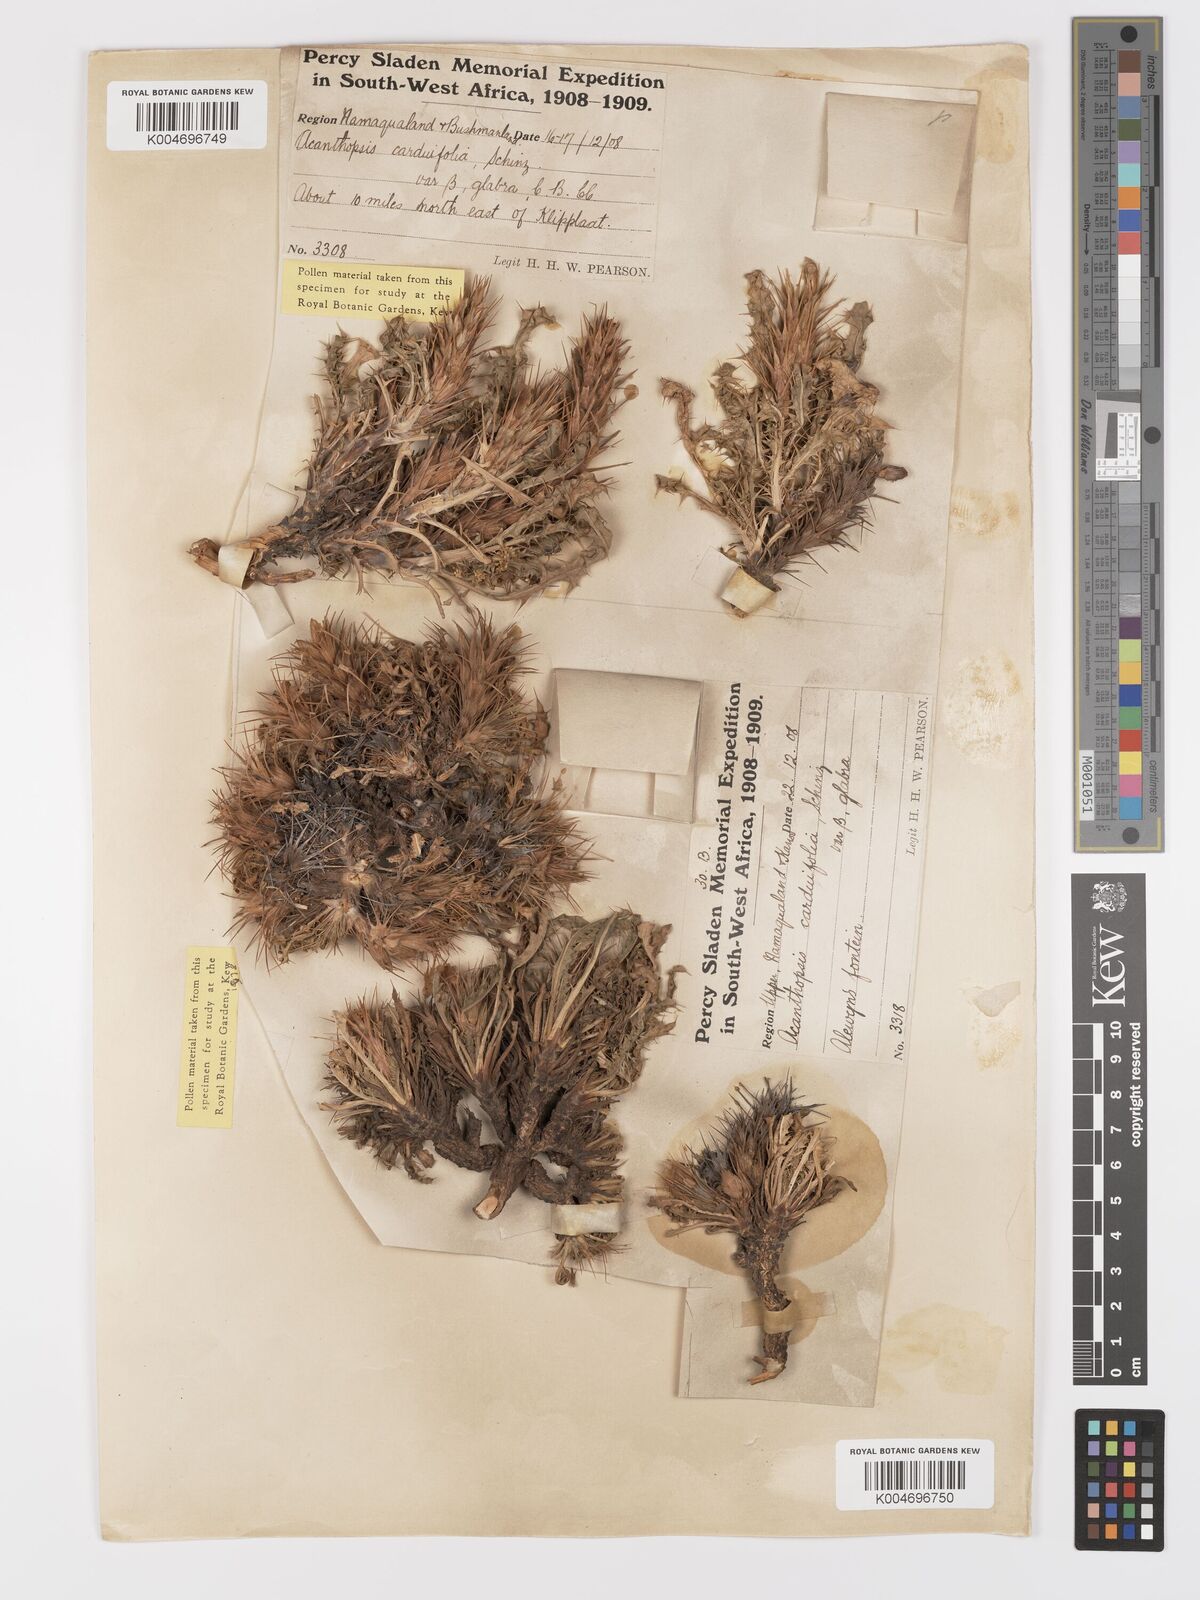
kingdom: Plantae
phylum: Tracheophyta
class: Magnoliopsida
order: Lamiales
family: Acanthaceae
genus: Acanthopsis
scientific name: Acanthopsis carduifolia
